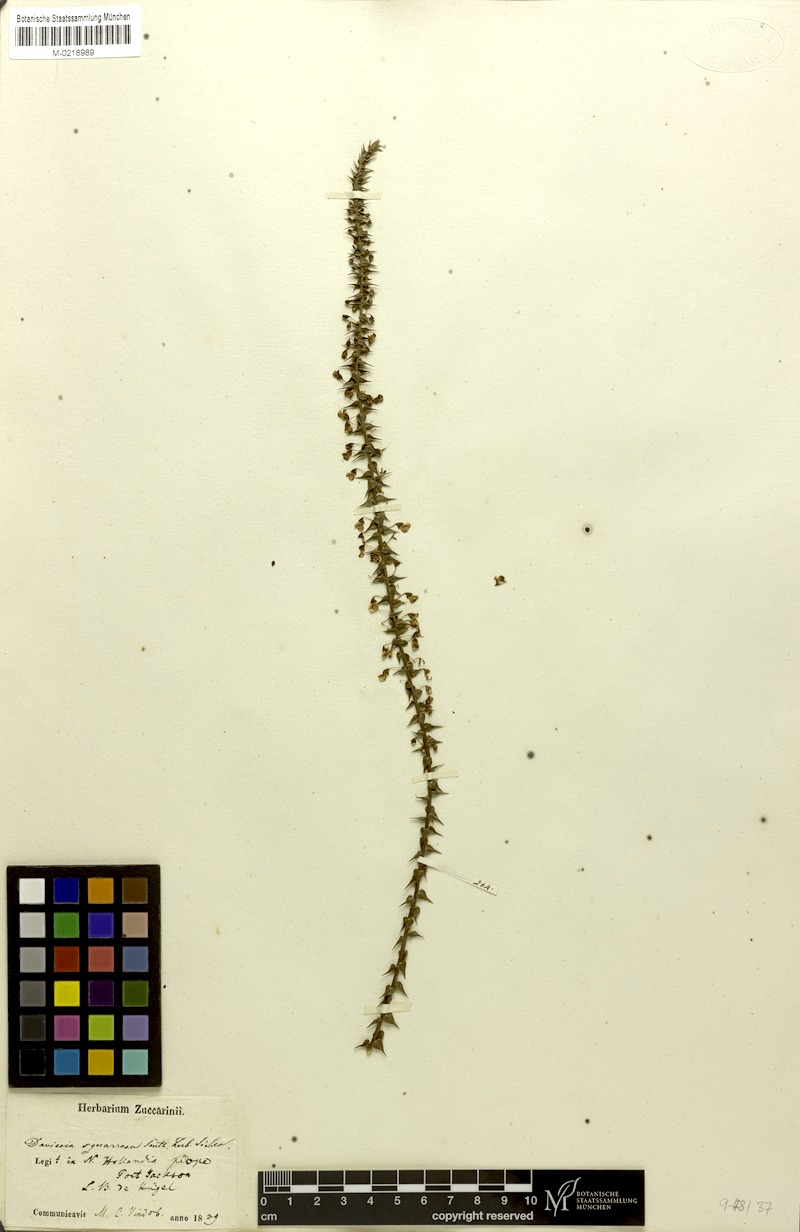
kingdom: Plantae
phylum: Tracheophyta
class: Magnoliopsida
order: Fabales
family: Fabaceae
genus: Daviesia
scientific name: Daviesia squarrosa
